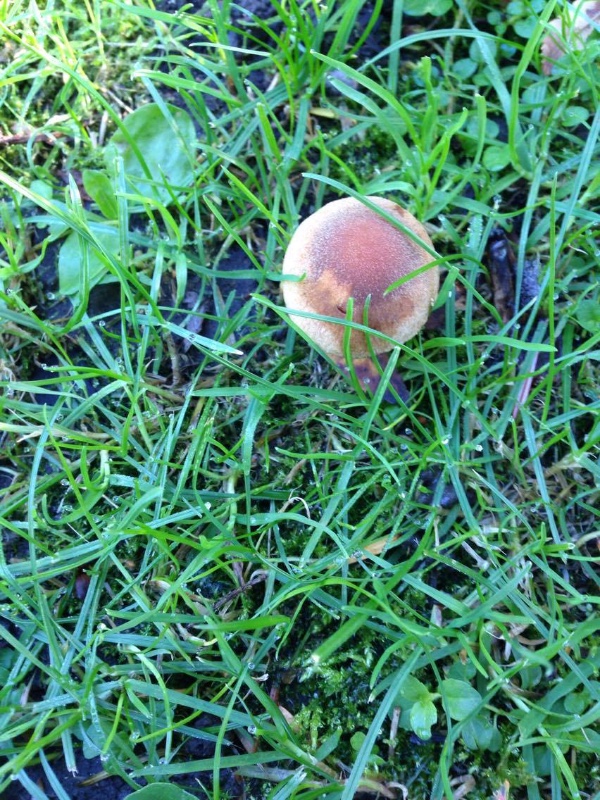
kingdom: Fungi
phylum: Basidiomycota
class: Agaricomycetes
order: Agaricales
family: Psathyrellaceae
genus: Lacrymaria
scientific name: Lacrymaria lacrymabunda
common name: grædende mørkhat
